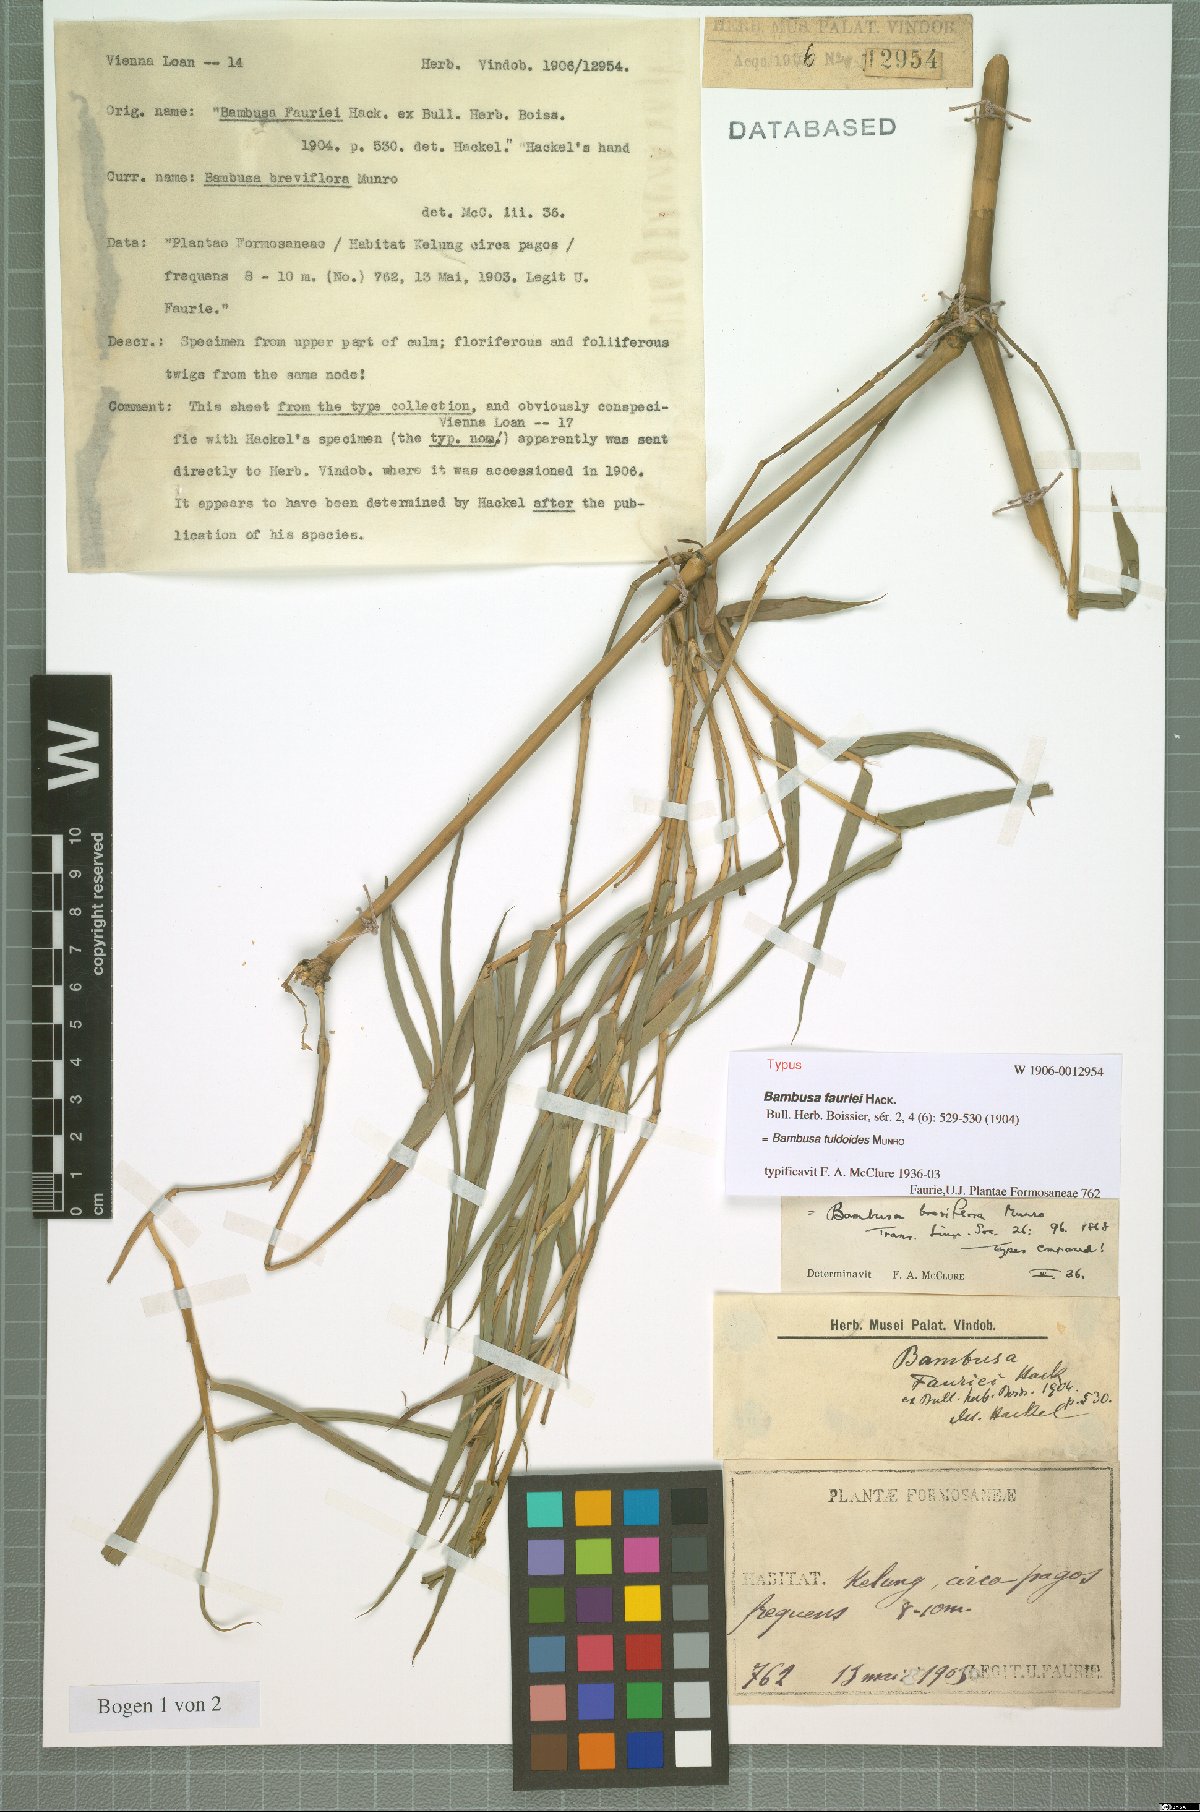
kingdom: Plantae
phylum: Tracheophyta
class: Liliopsida
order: Poales
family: Poaceae
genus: Bambusa
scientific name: Bambusa tuldoides
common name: Verdant bamboo
